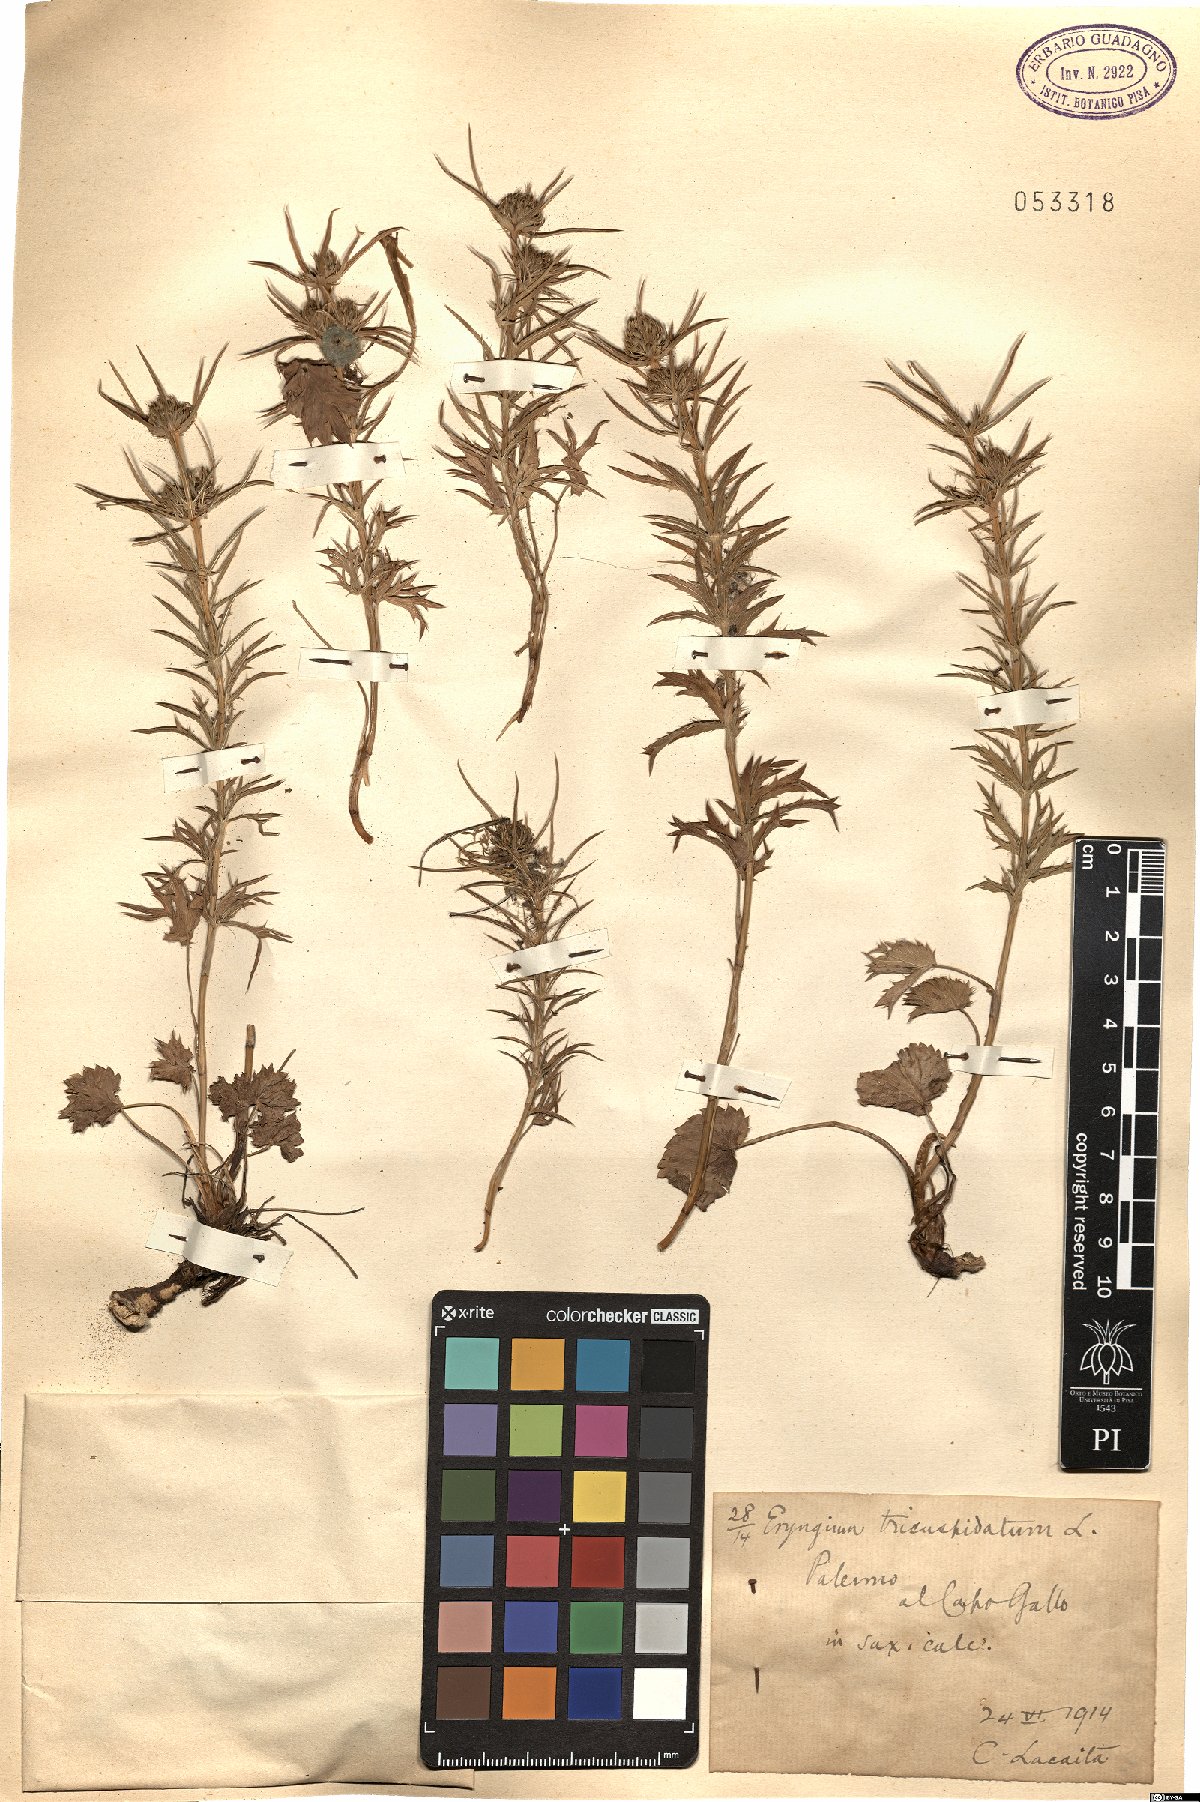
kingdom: Plantae
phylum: Tracheophyta
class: Magnoliopsida
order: Apiales
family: Apiaceae
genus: Eryngium
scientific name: Eryngium tricuspidatum
